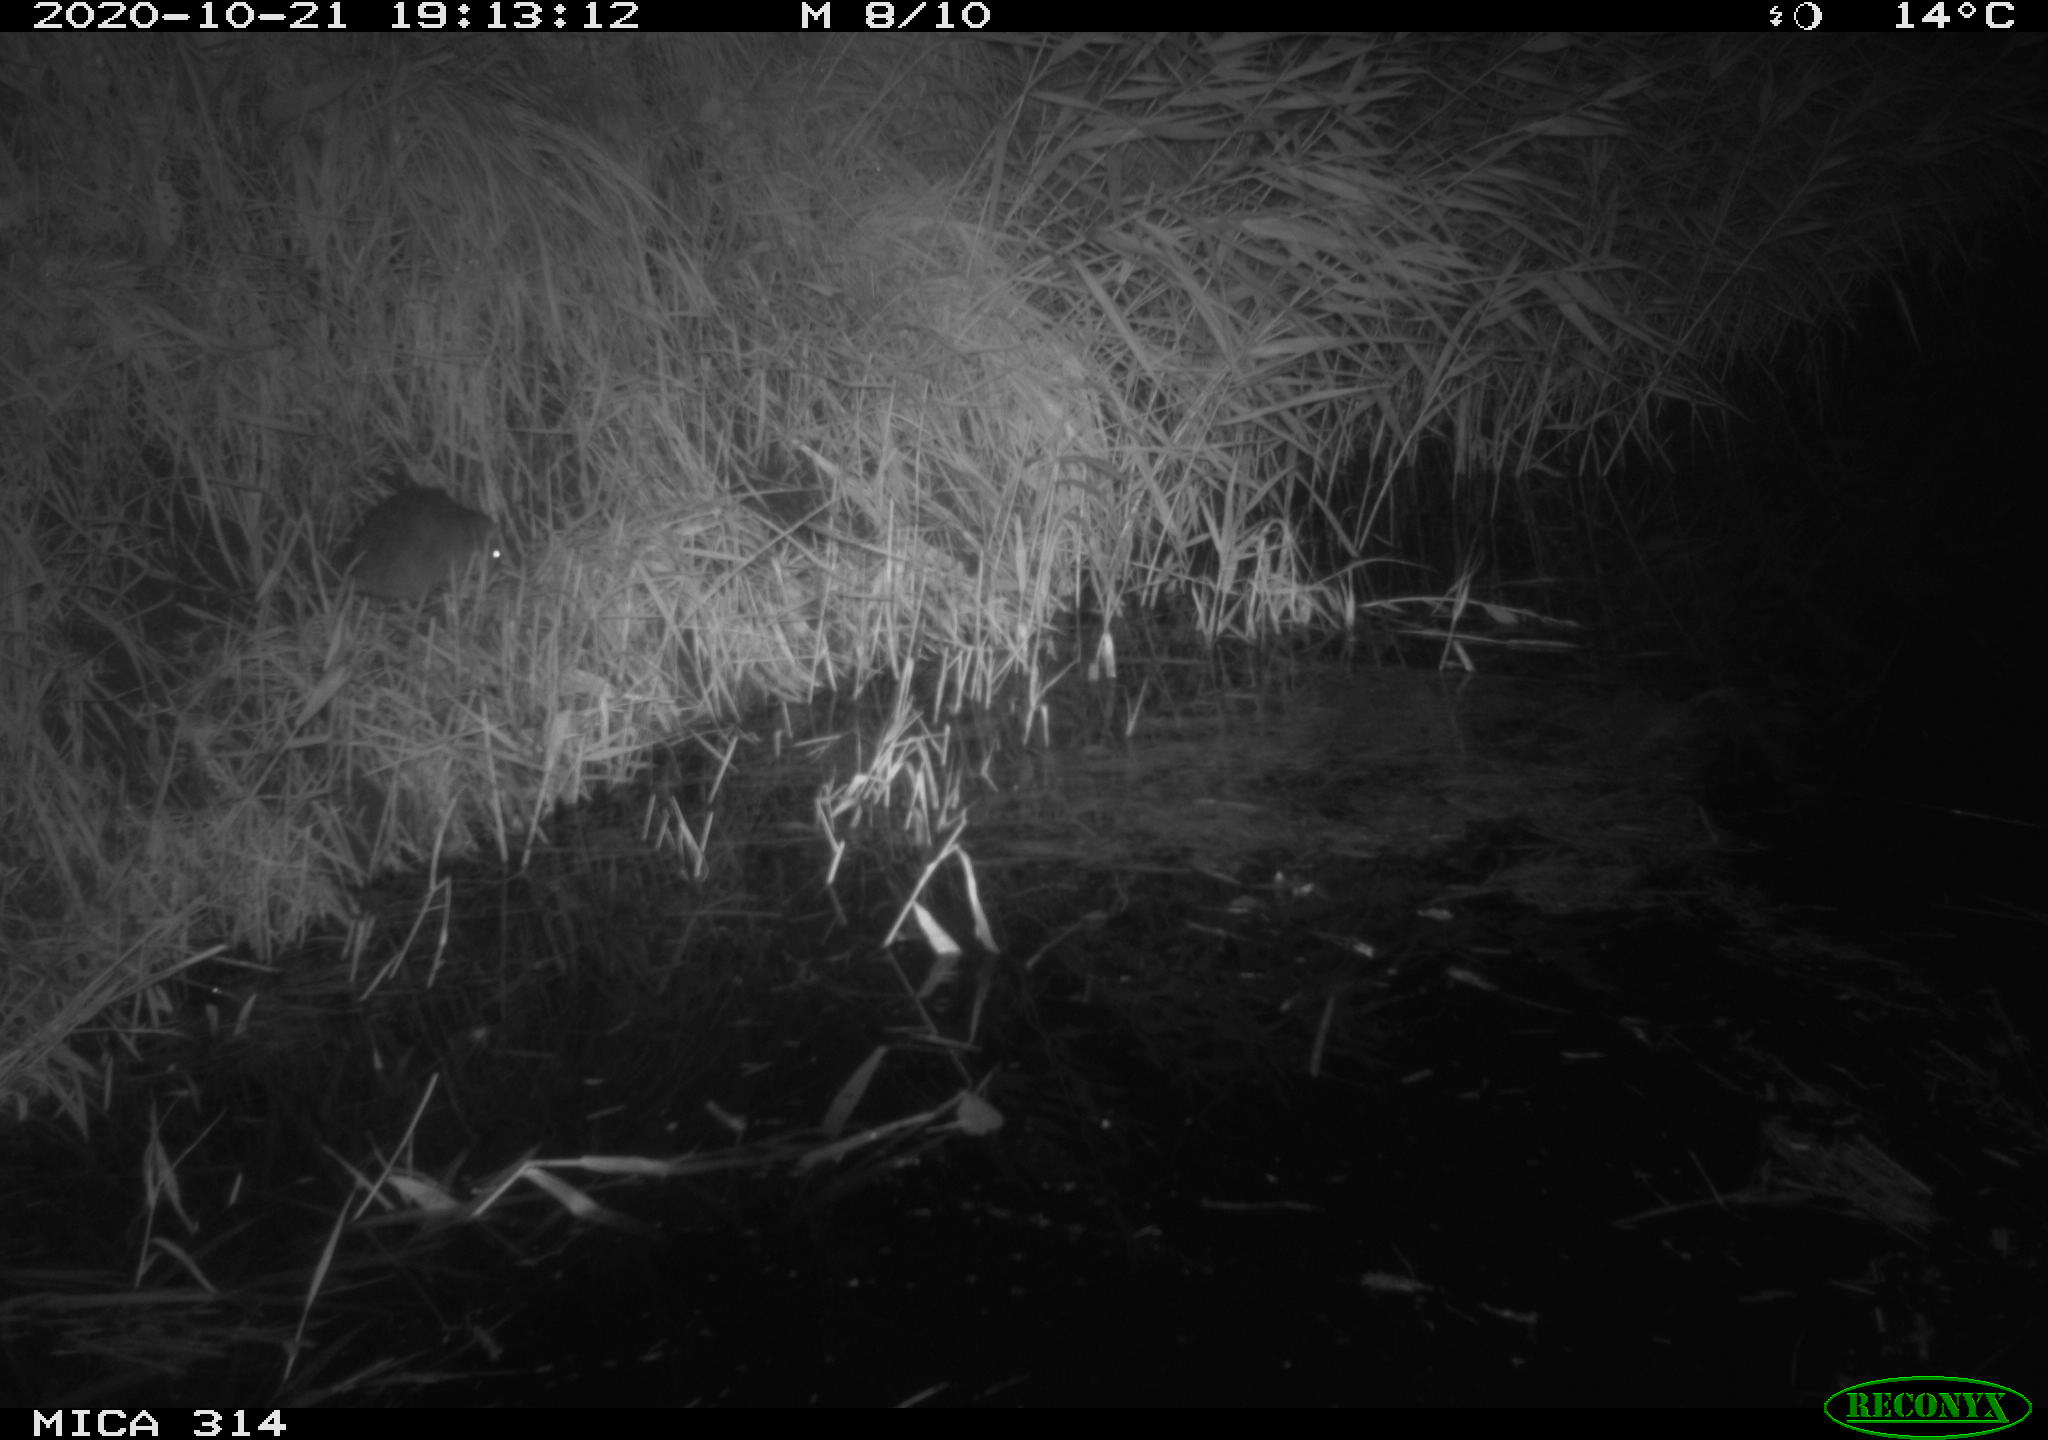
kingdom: Animalia
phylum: Chordata
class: Mammalia
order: Rodentia
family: Muridae
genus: Rattus
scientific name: Rattus norvegicus
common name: Brown rat
